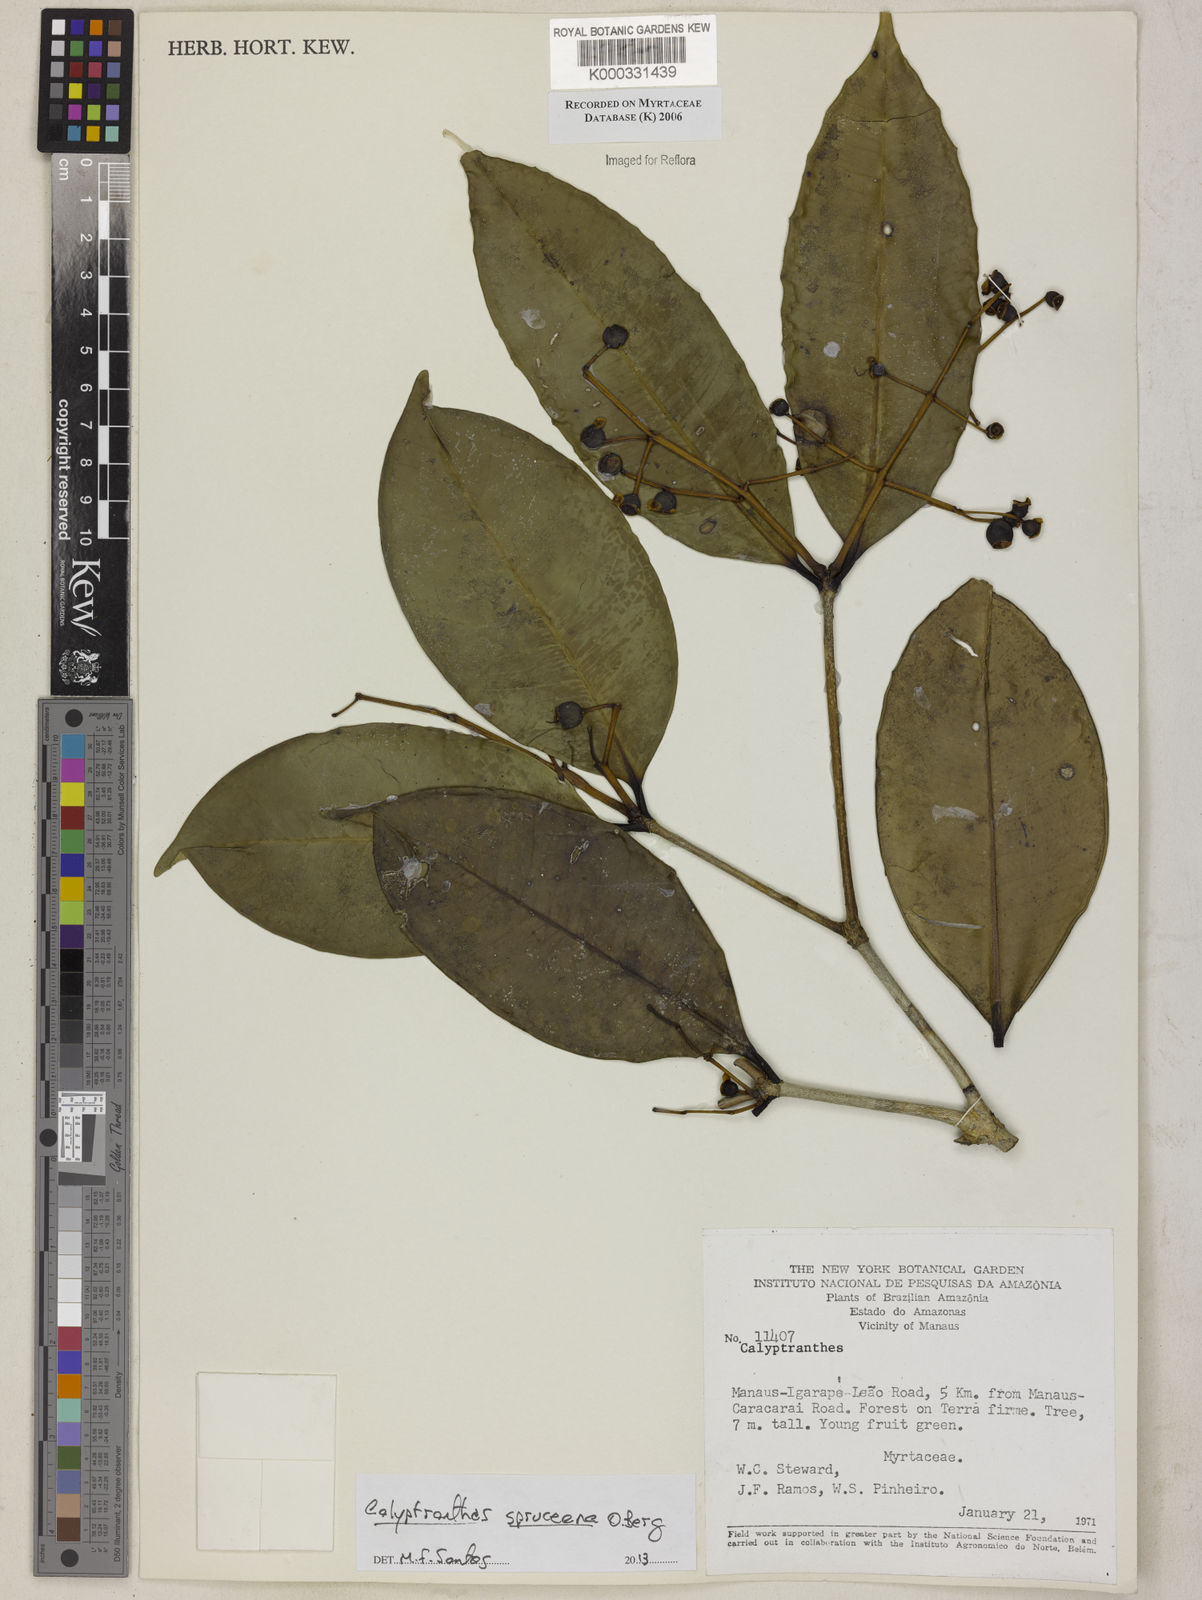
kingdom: Plantae
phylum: Tracheophyta
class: Magnoliopsida
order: Myrtales
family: Myrtaceae
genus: Calyptranthes
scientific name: Calyptranthes
